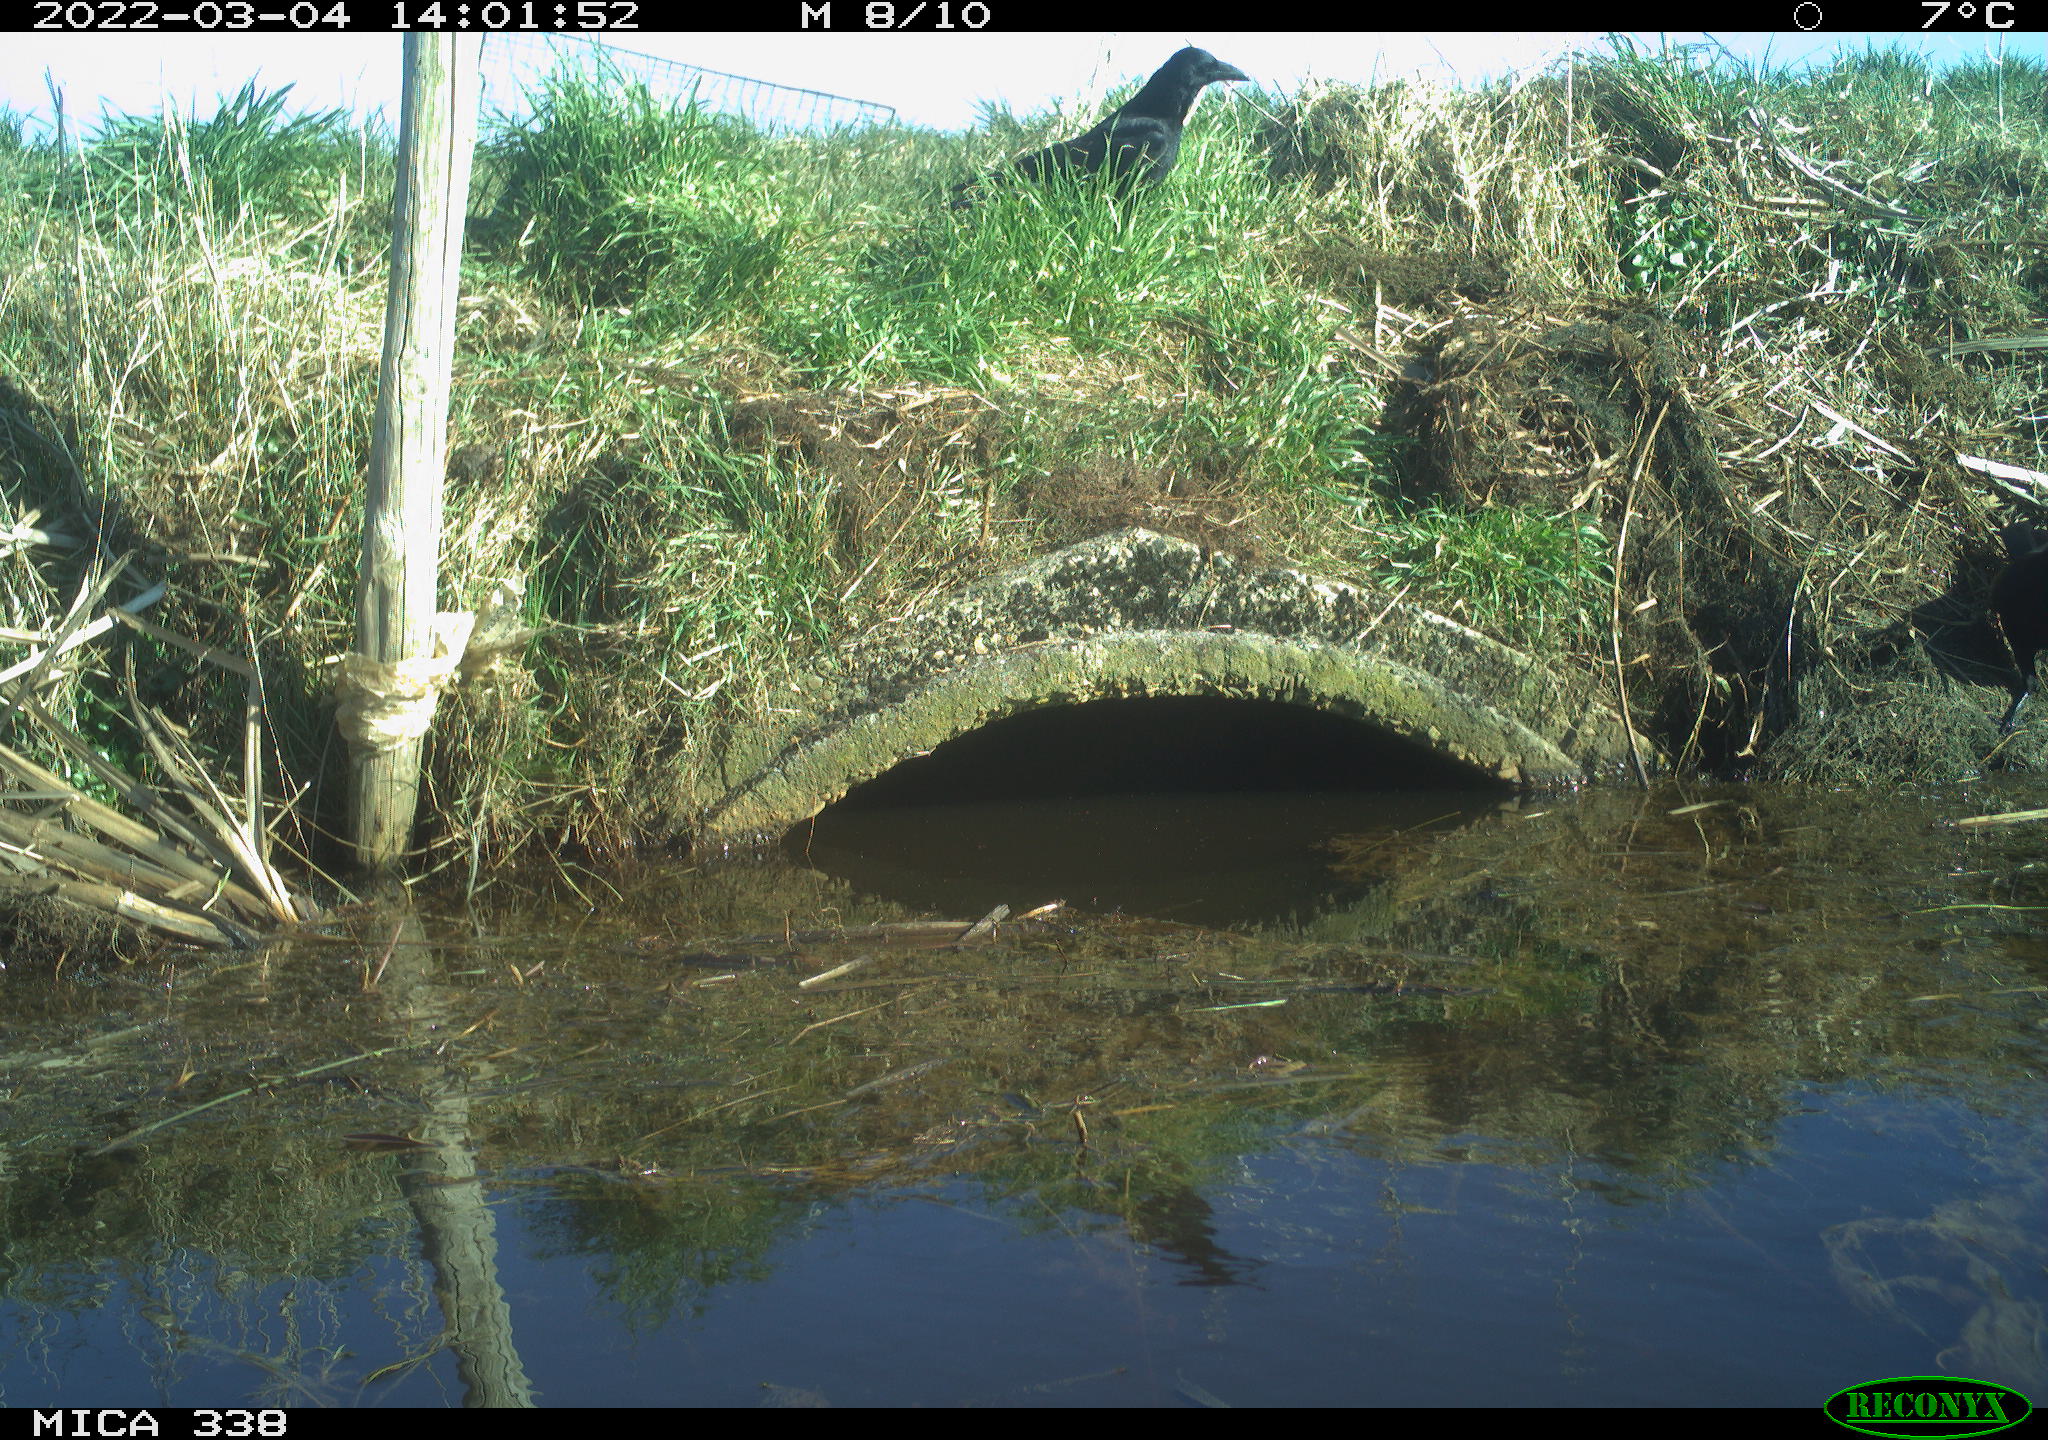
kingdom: Animalia
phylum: Chordata
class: Aves
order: Passeriformes
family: Corvidae
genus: Corvus
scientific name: Corvus corone
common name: Carrion crow
